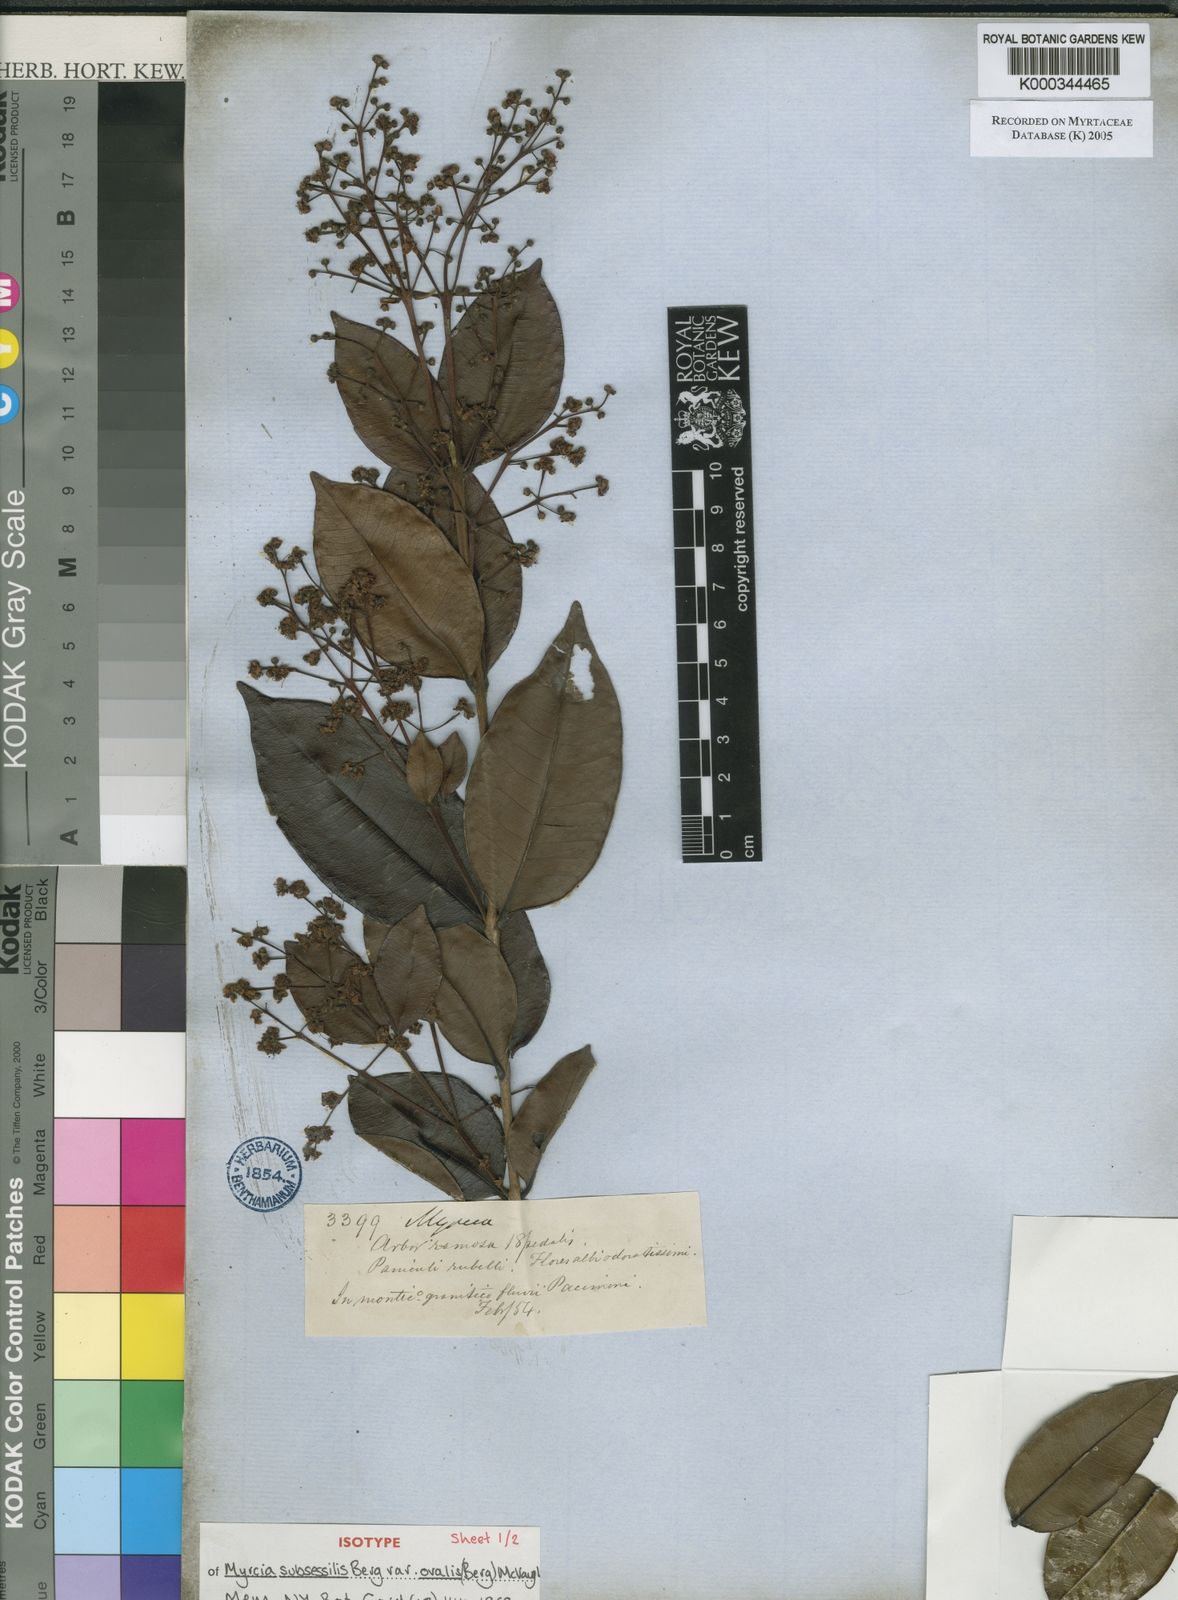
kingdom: Plantae
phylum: Tracheophyta
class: Magnoliopsida
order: Myrtales
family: Myrtaceae
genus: Myrcia
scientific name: Myrcia subsessilis
